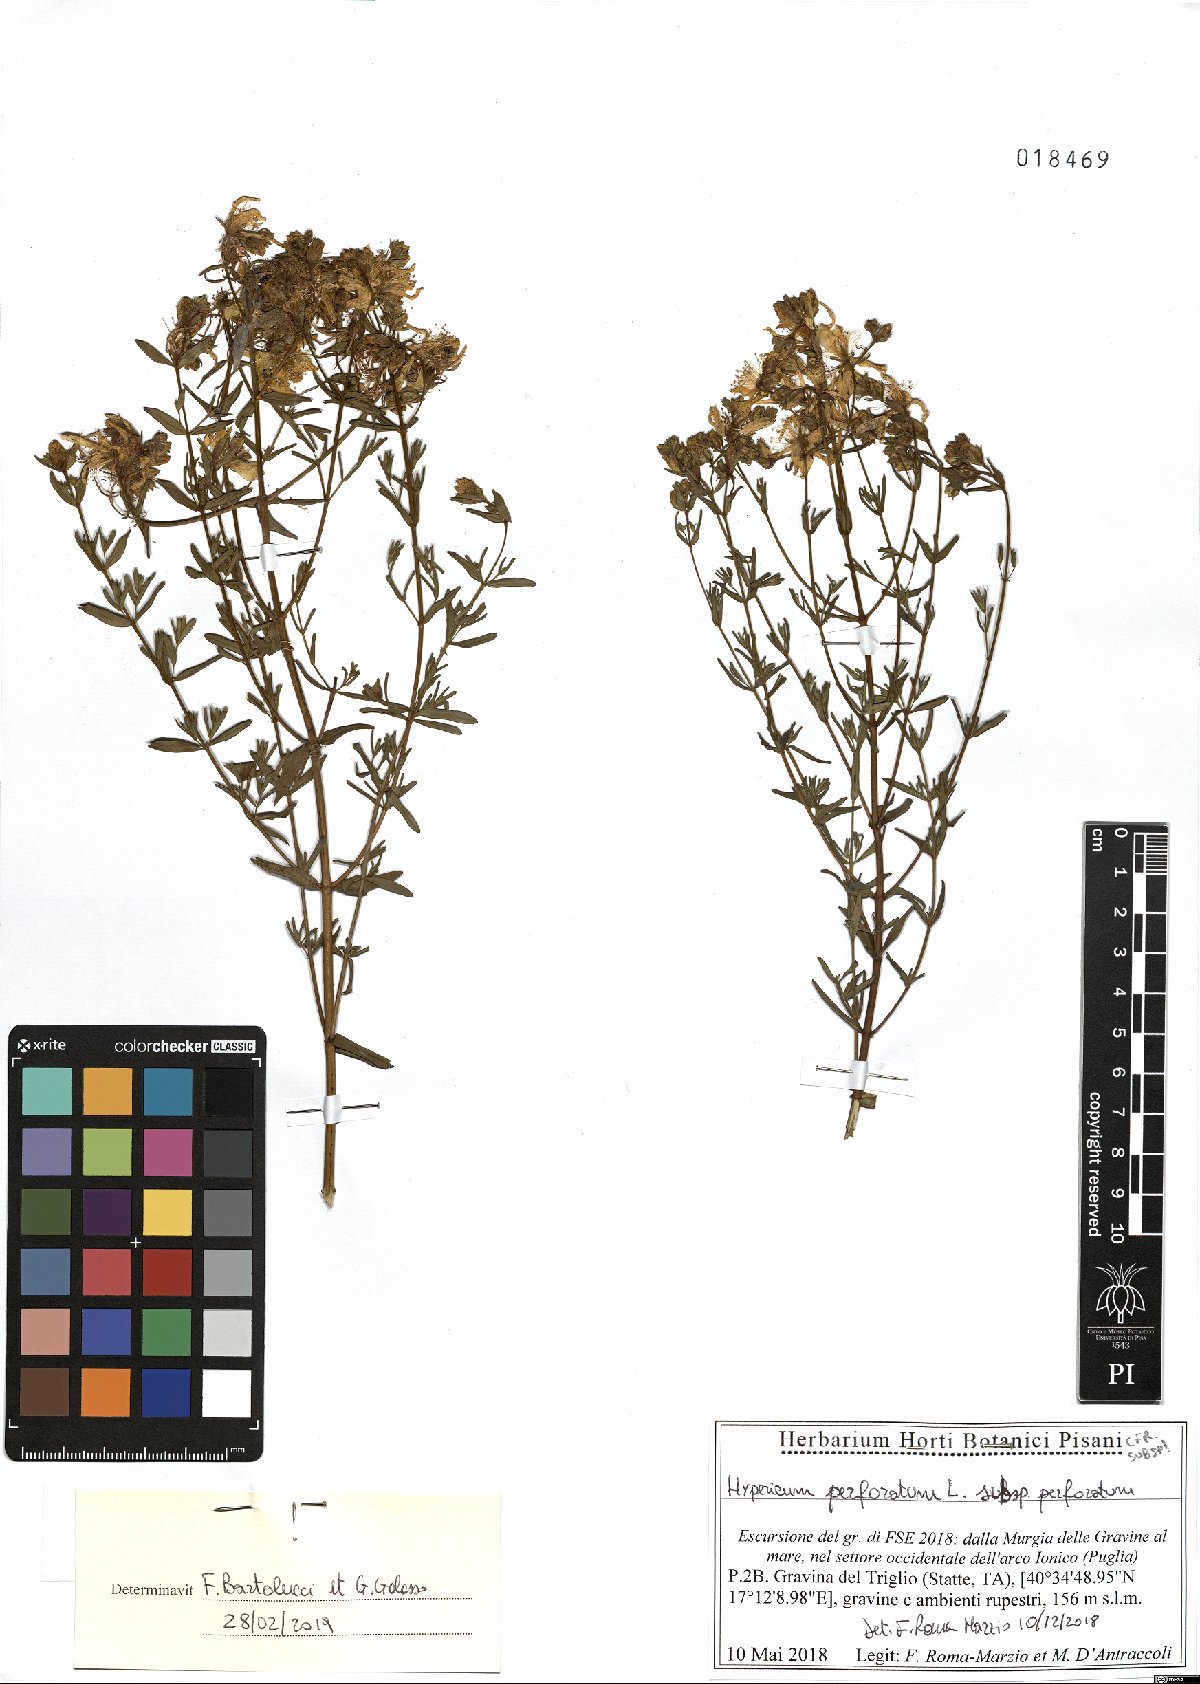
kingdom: Plantae
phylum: Tracheophyta
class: Magnoliopsida
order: Malpighiales
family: Hypericaceae
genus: Hypericum
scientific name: Hypericum perforatum
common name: Common st. johnswort
